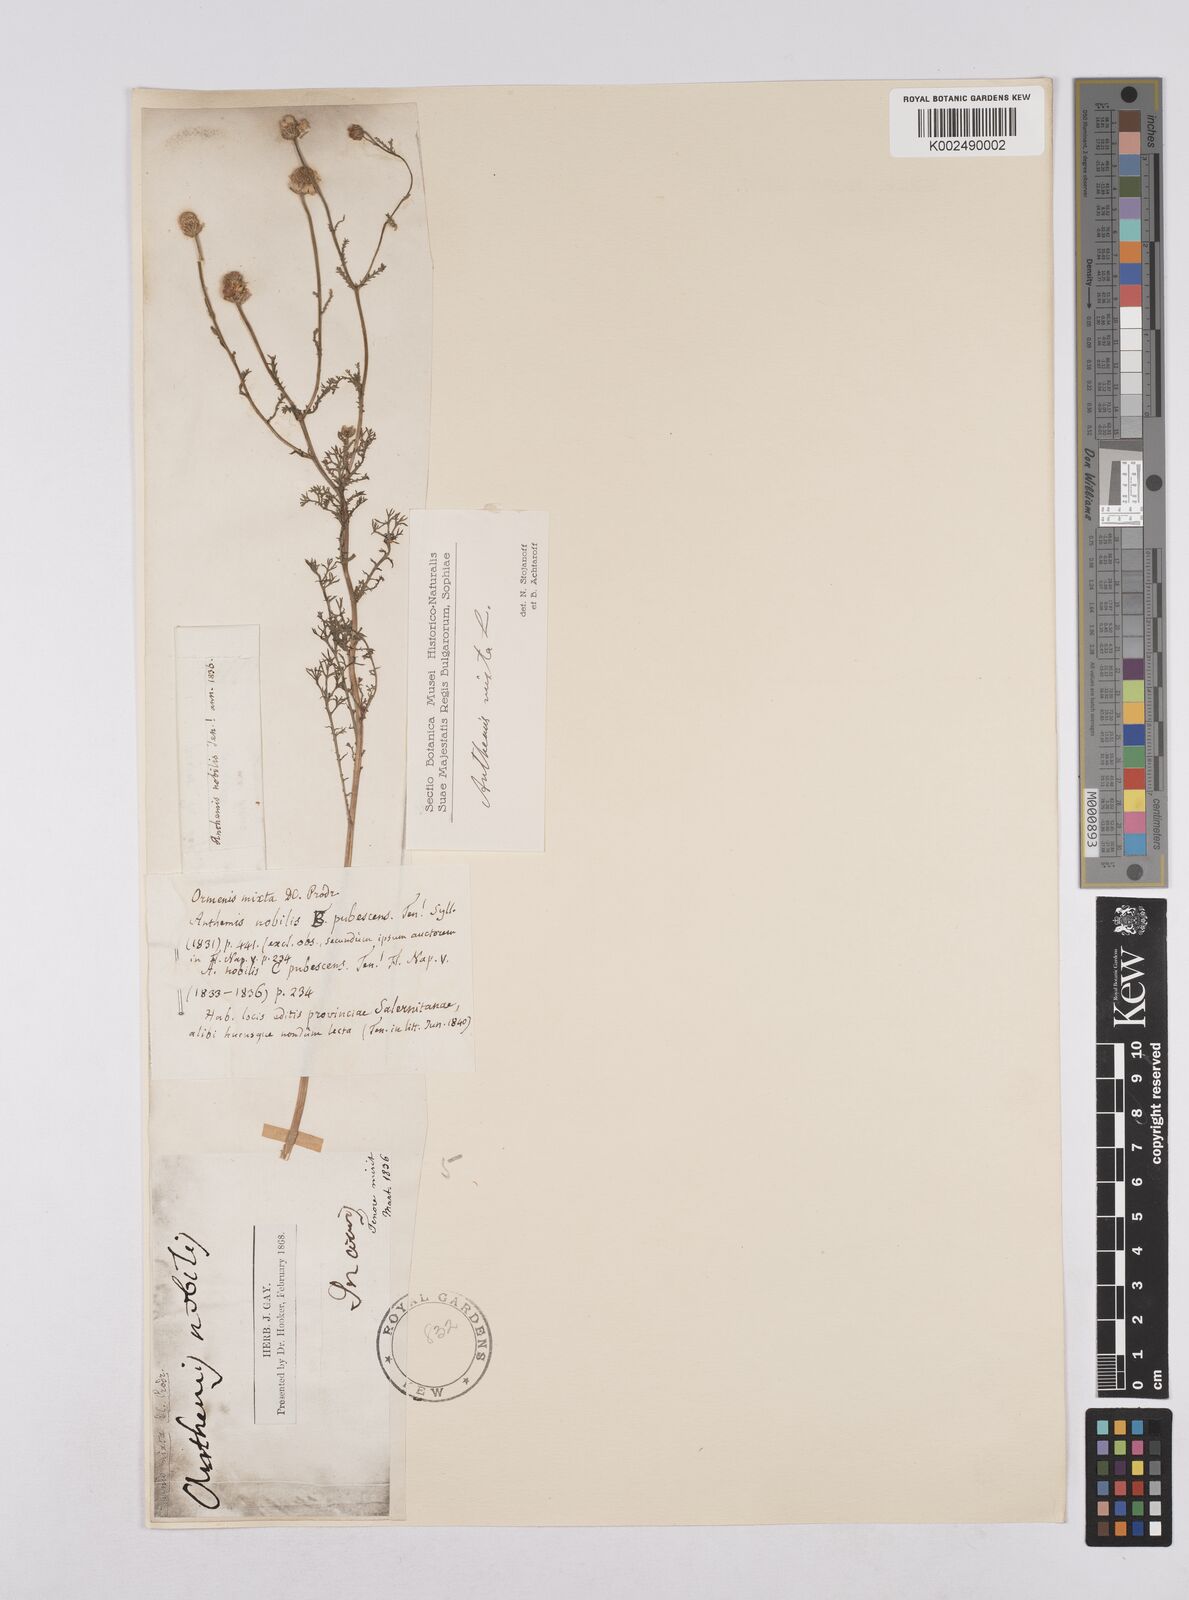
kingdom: Plantae
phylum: Tracheophyta
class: Magnoliopsida
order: Asterales
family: Asteraceae
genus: Chamaemelum
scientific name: Chamaemelum nobile
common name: Roman chamomile
